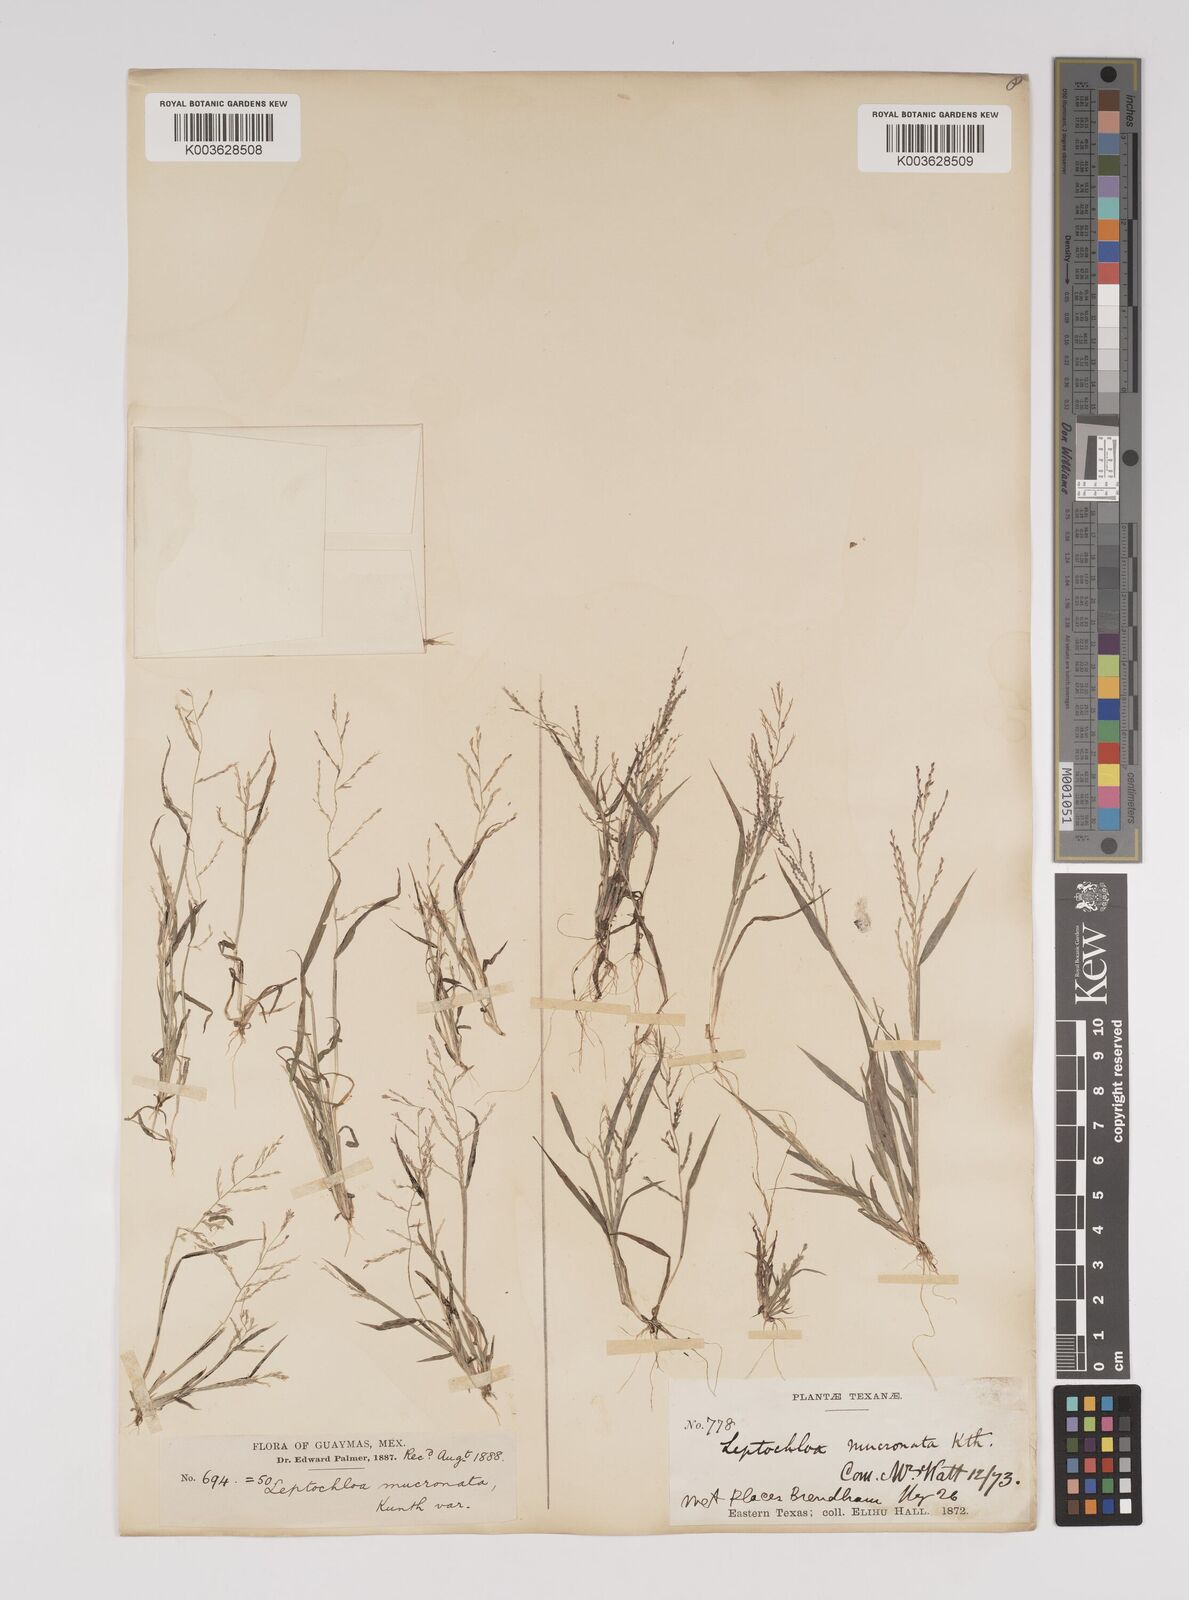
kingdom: Plantae
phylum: Tracheophyta
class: Liliopsida
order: Poales
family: Poaceae
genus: Leptochloa
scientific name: Leptochloa panicea
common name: Mucronate sprangletop
